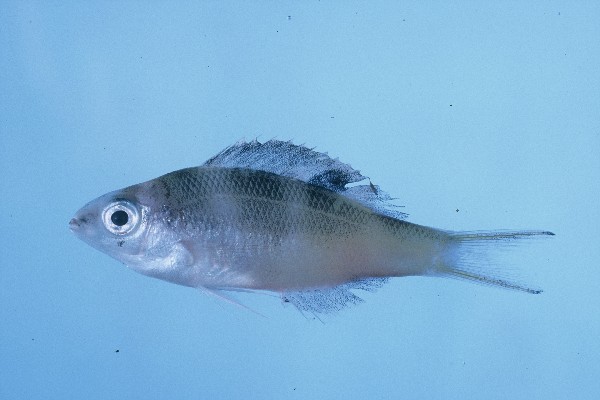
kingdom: Animalia
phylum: Chordata
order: Perciformes
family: Lethrinidae
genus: Monotaxis
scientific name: Monotaxis grandoculis
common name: Bigeye emperor
